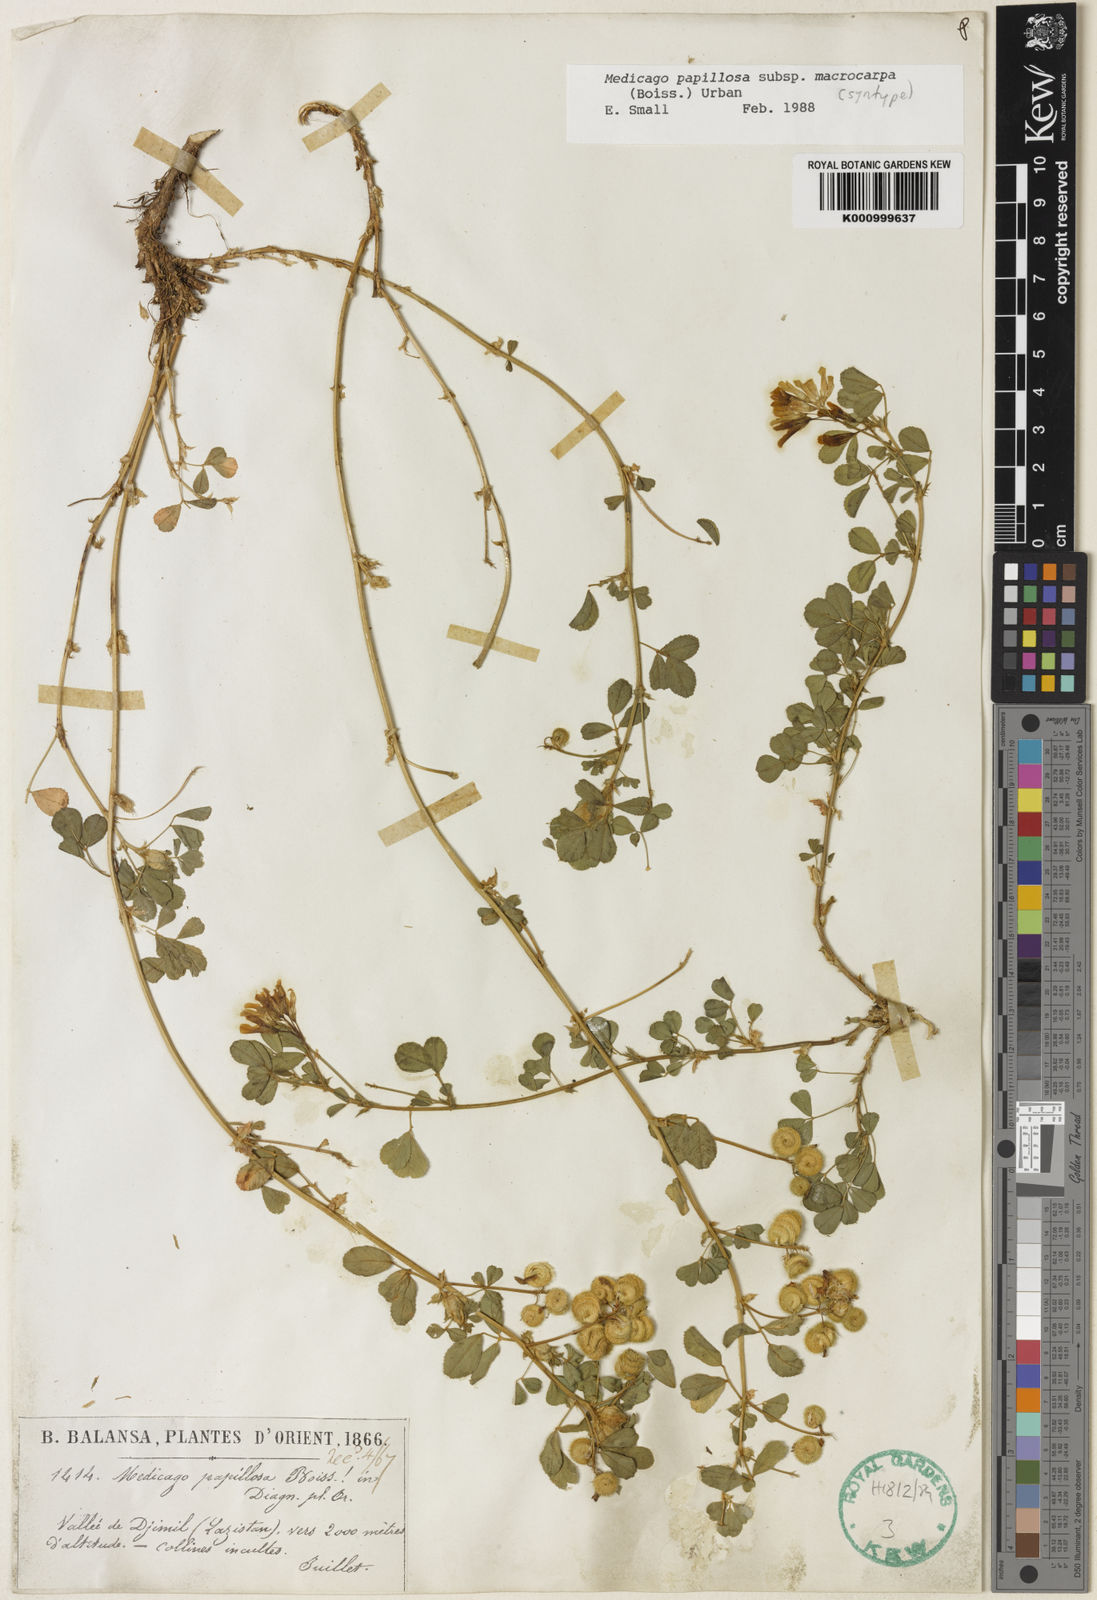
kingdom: Plantae
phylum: Tracheophyta
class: Magnoliopsida
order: Fabales
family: Fabaceae
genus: Medicago
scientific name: Medicago papillosa
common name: Alpine alfalfa
